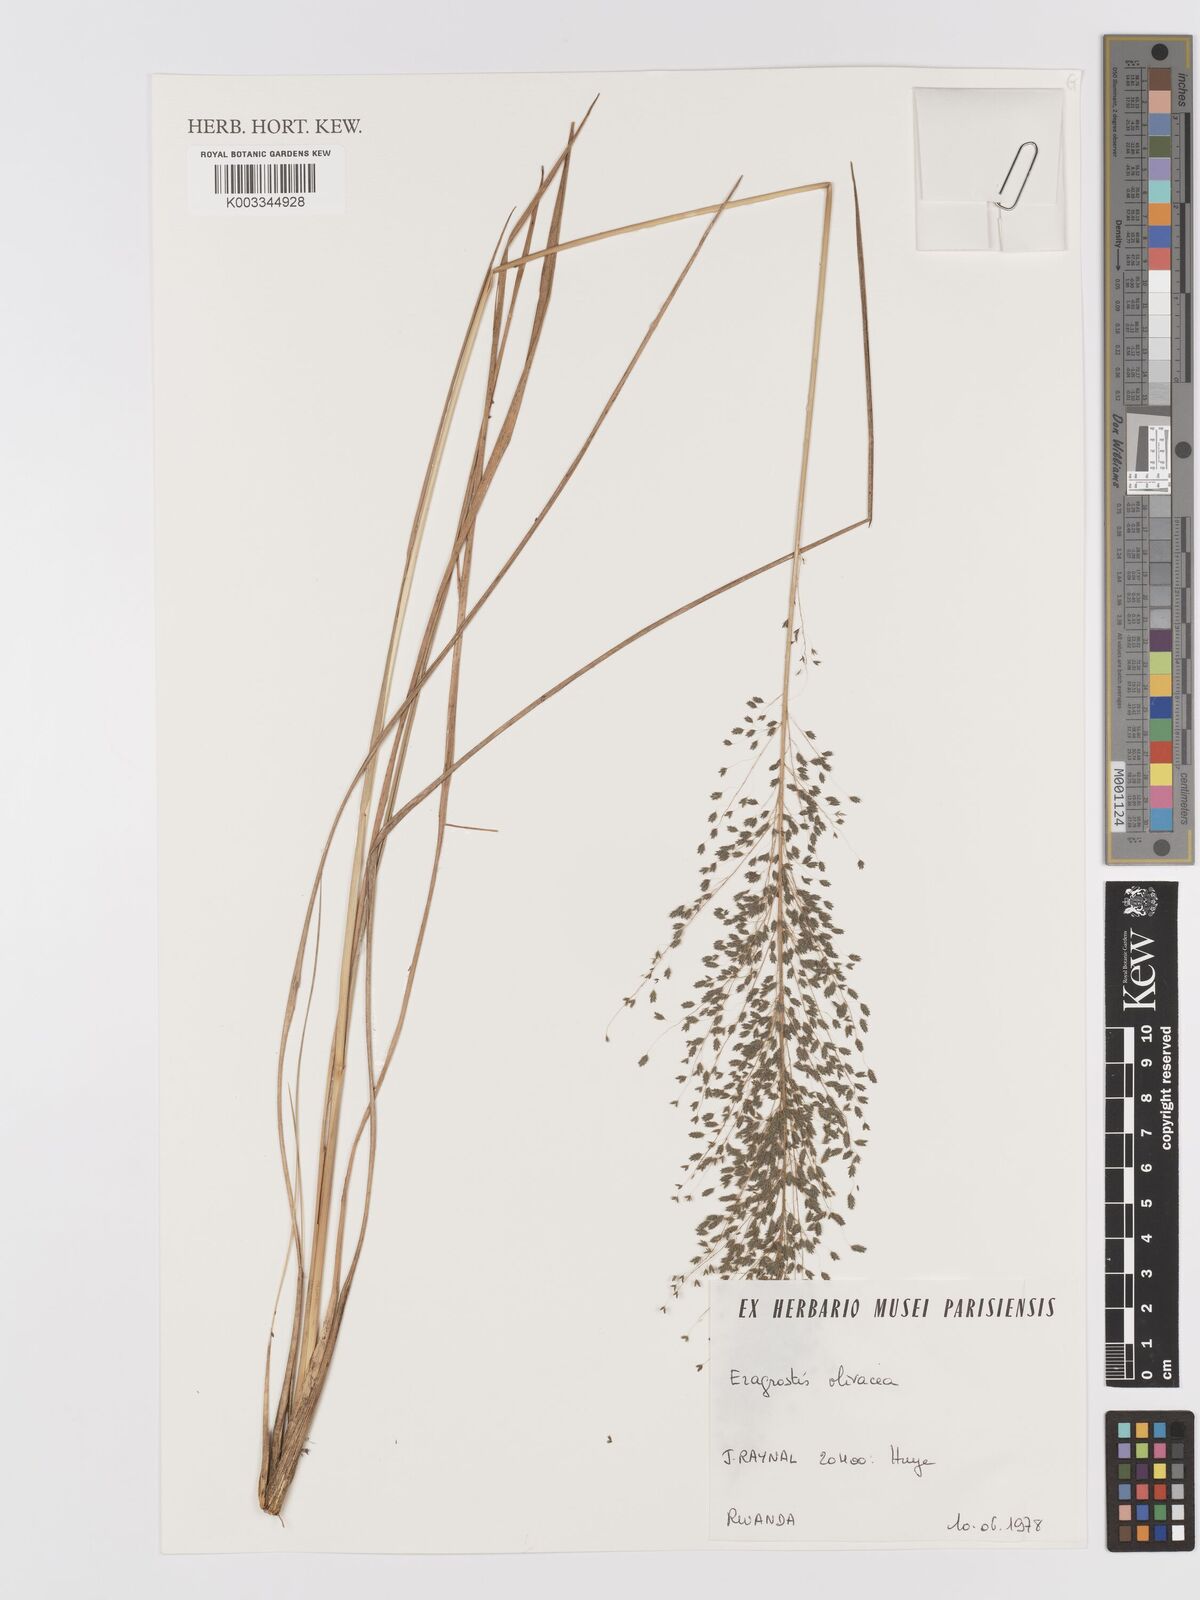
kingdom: Plantae
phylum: Tracheophyta
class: Liliopsida
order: Poales
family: Poaceae
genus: Eragrostis
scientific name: Eragrostis olivacea
